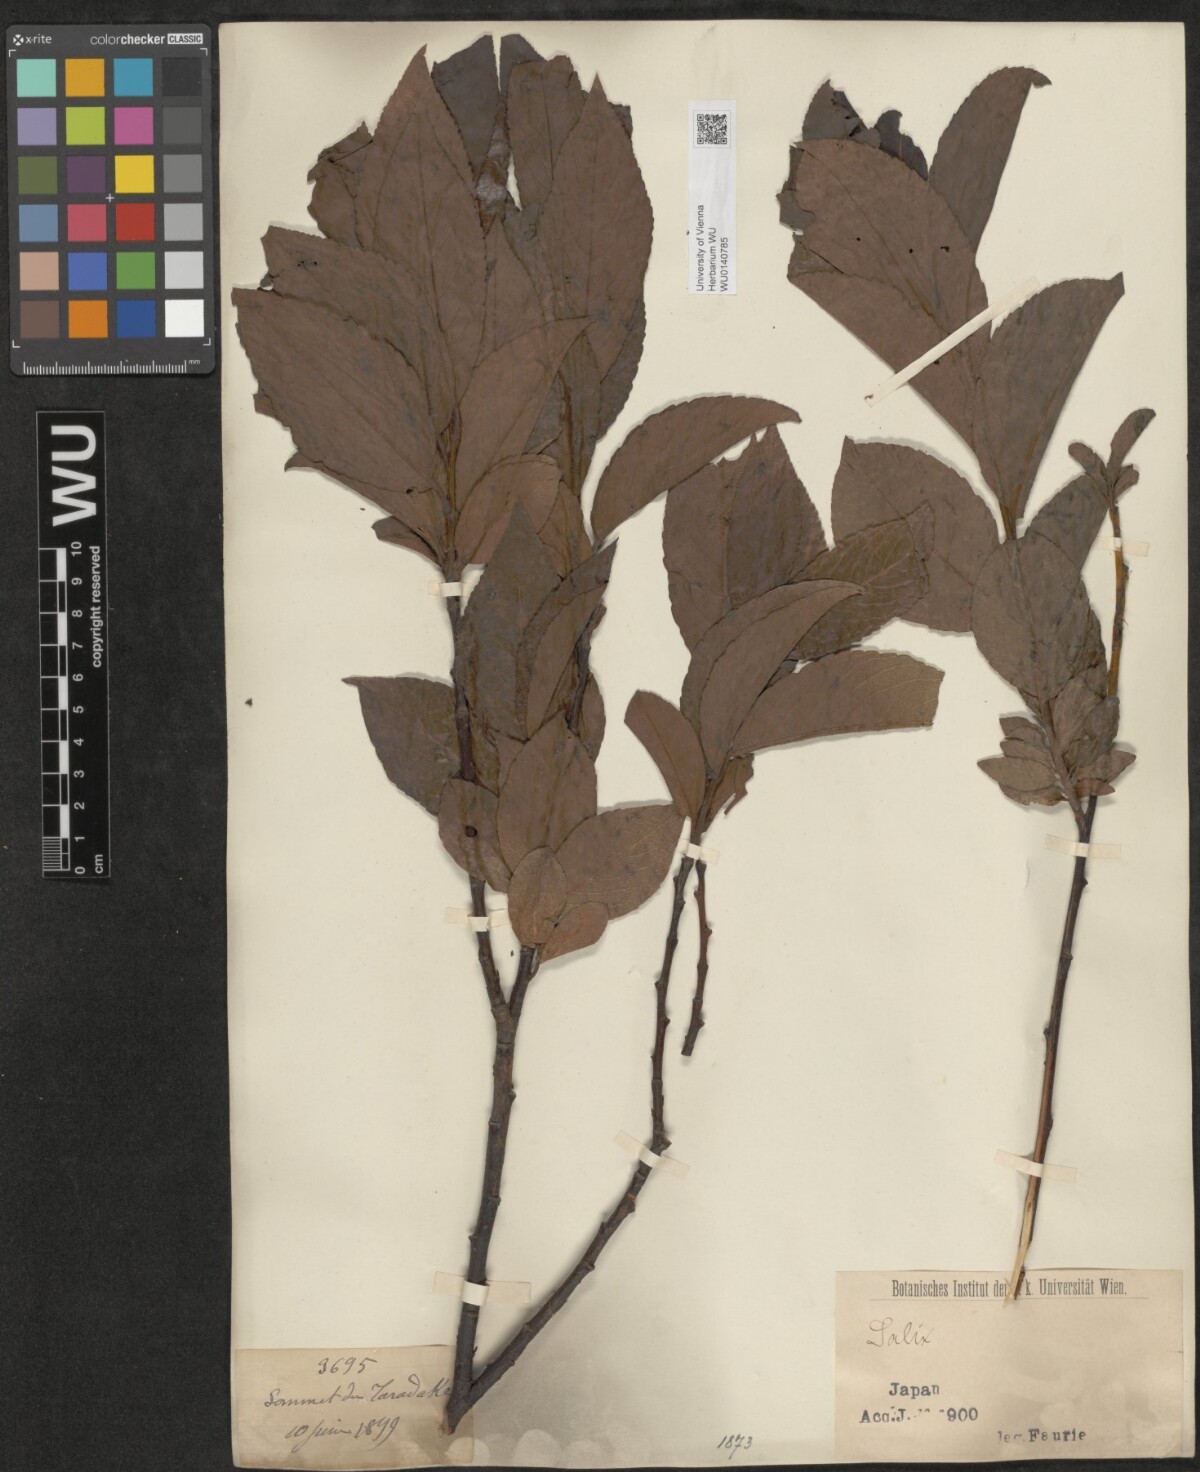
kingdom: Plantae
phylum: Tracheophyta
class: Magnoliopsida
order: Malpighiales
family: Salicaceae
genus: Salix
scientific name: Salix
